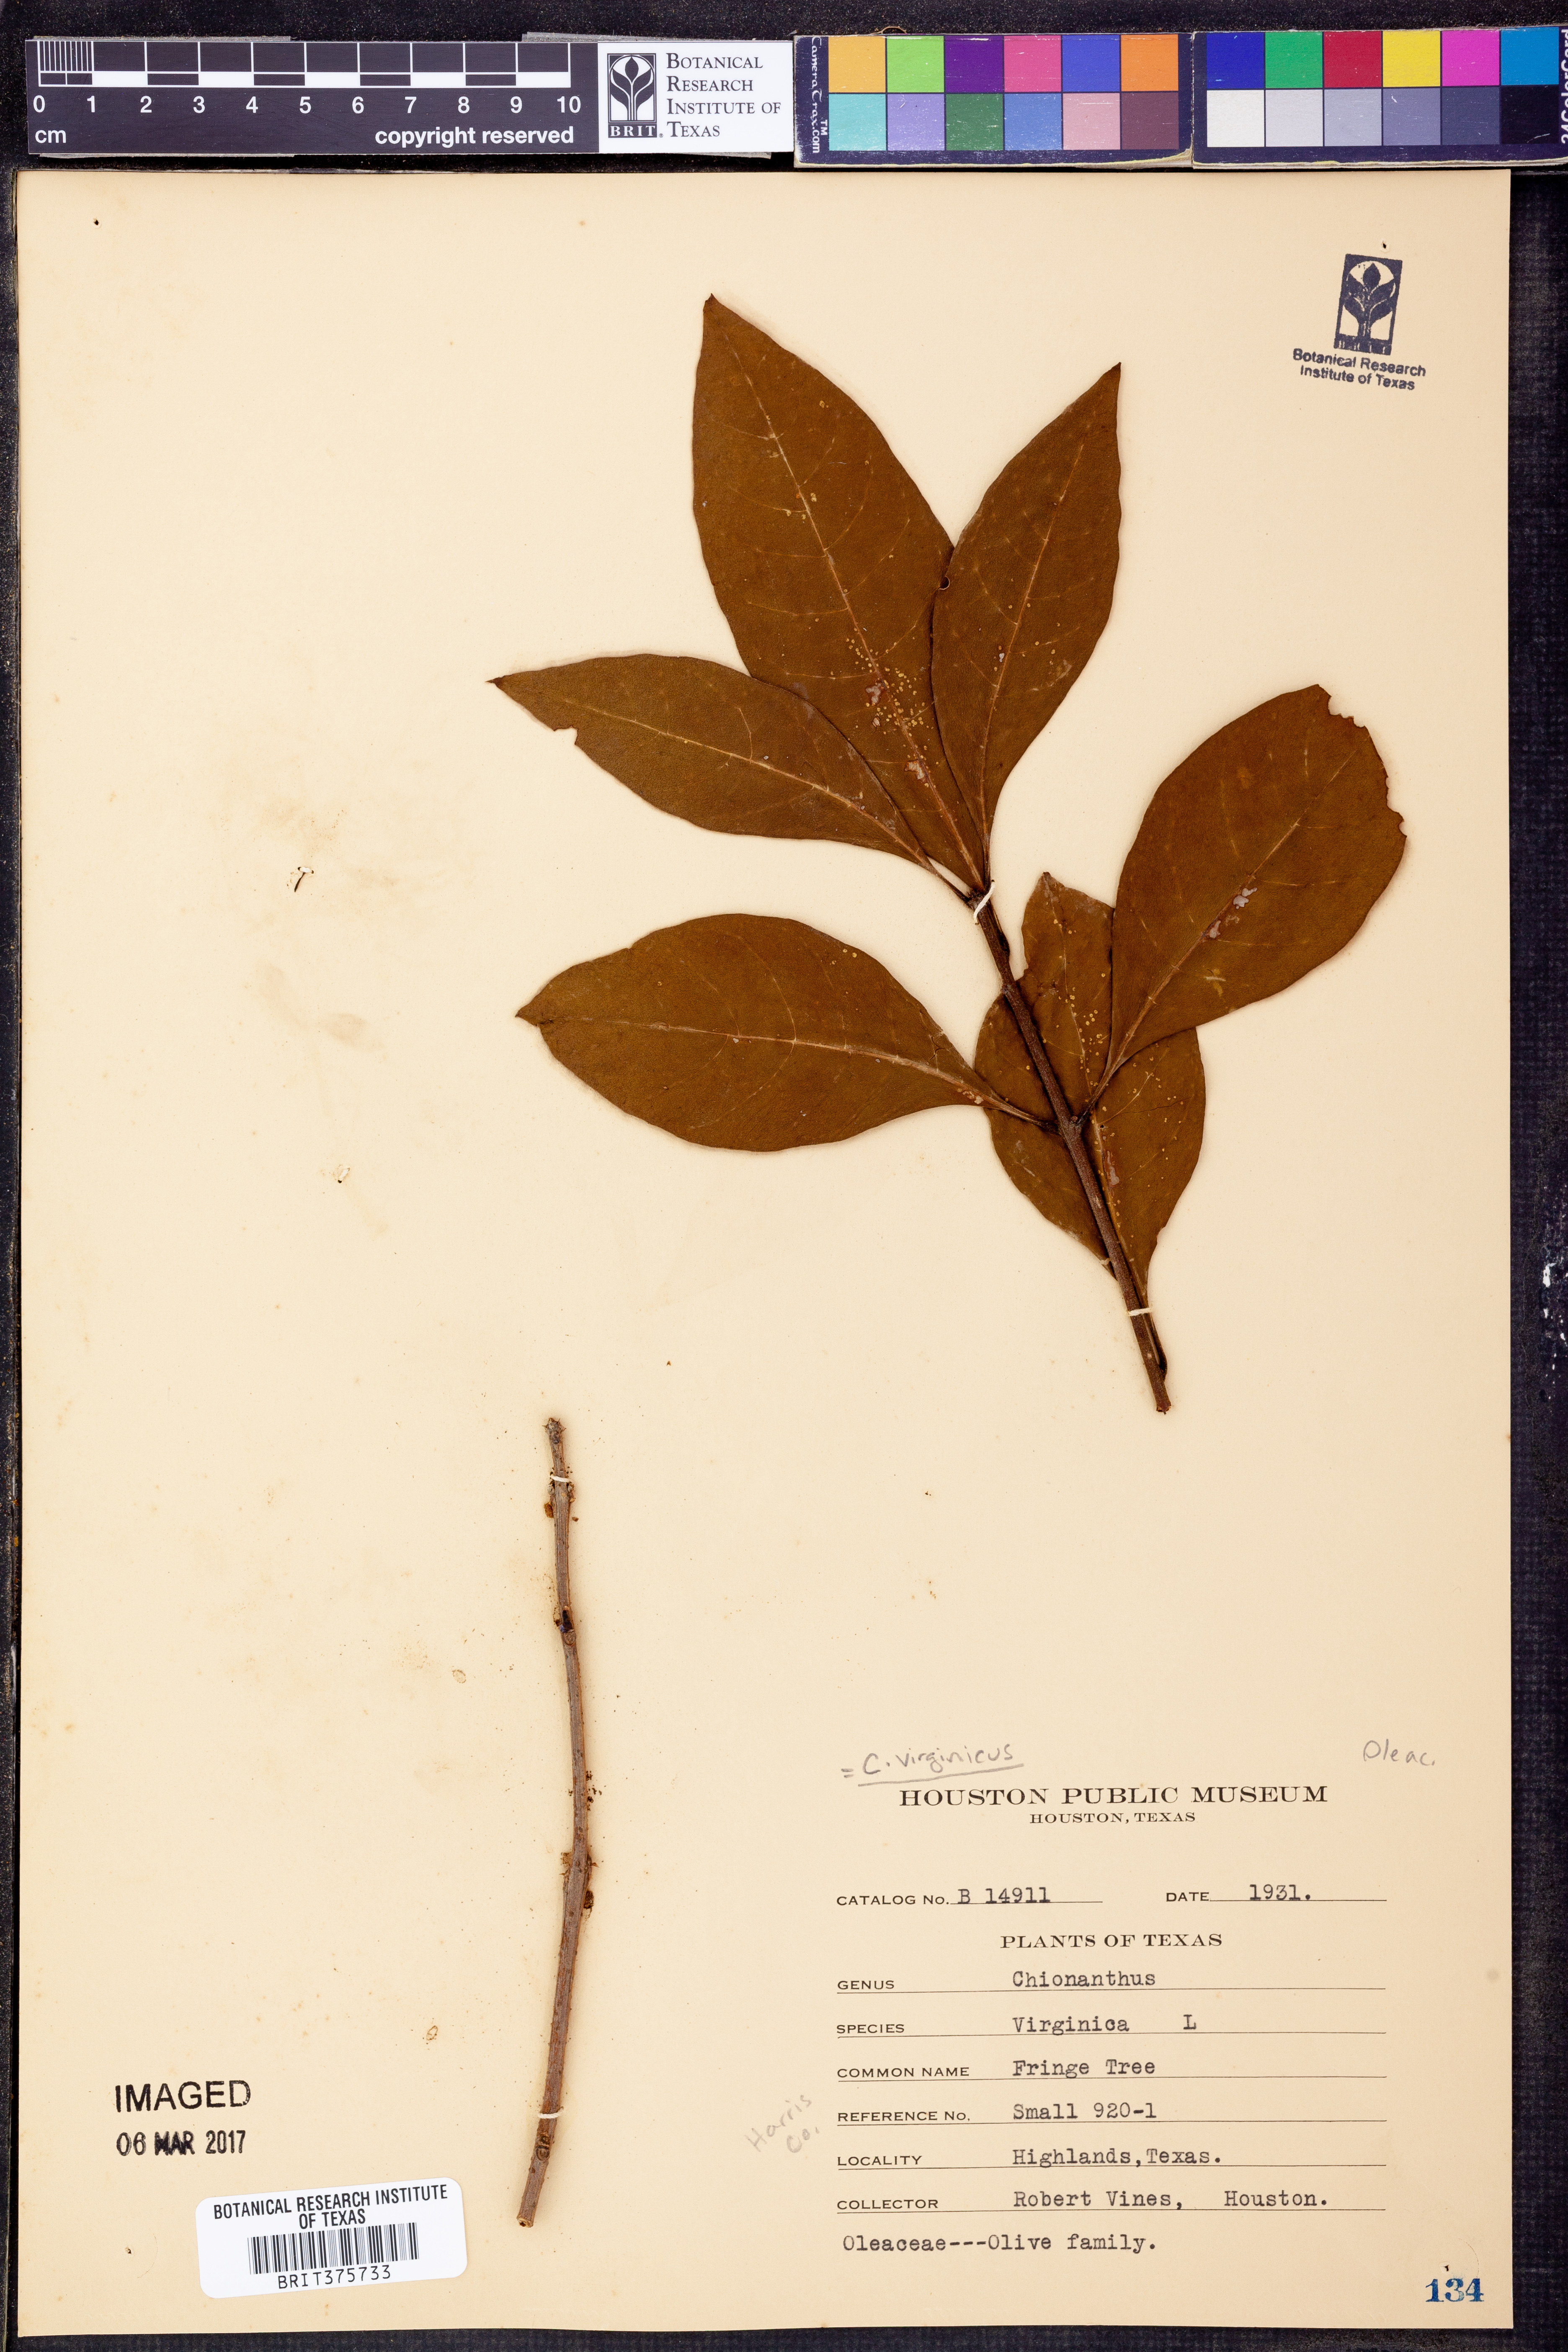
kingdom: Plantae
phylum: Tracheophyta
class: Magnoliopsida
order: Lamiales
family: Oleaceae
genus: Chionanthus
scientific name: Chionanthus virginicus
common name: American fringetree
